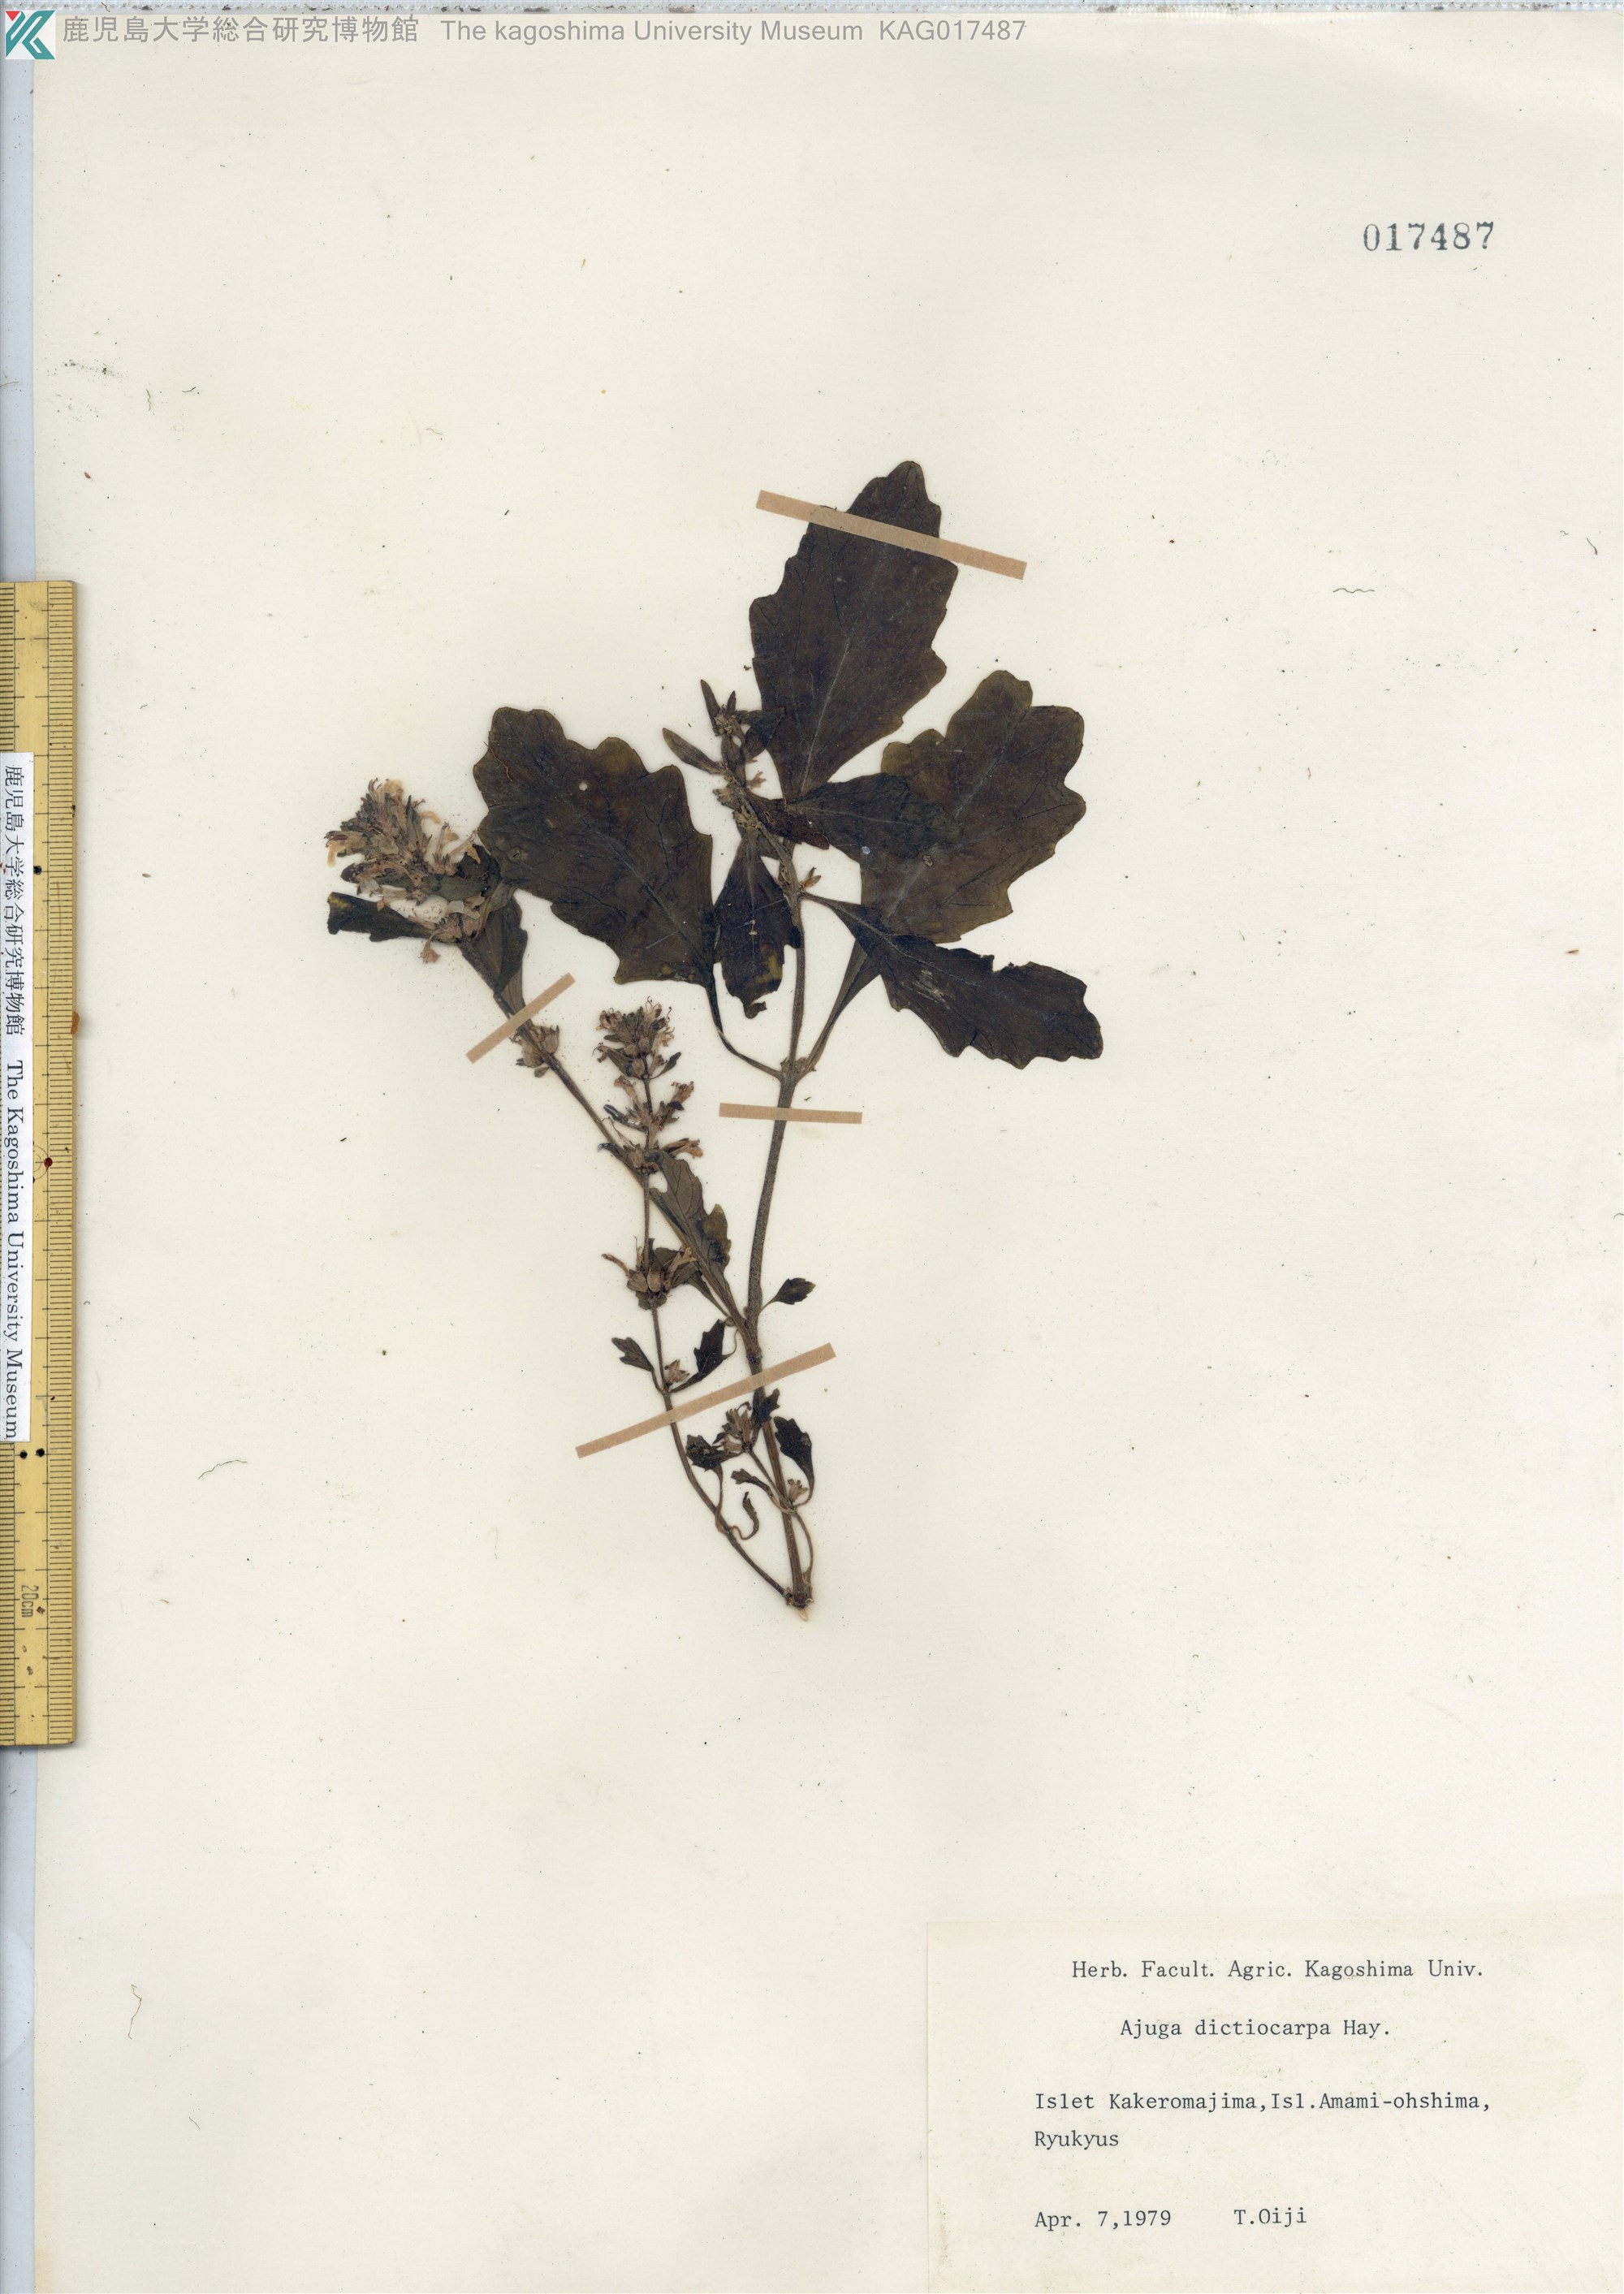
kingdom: Plantae
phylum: Tracheophyta
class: Magnoliopsida
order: Lamiales
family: Lamiaceae
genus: Ajuga
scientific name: Ajuga dictyocarpa
